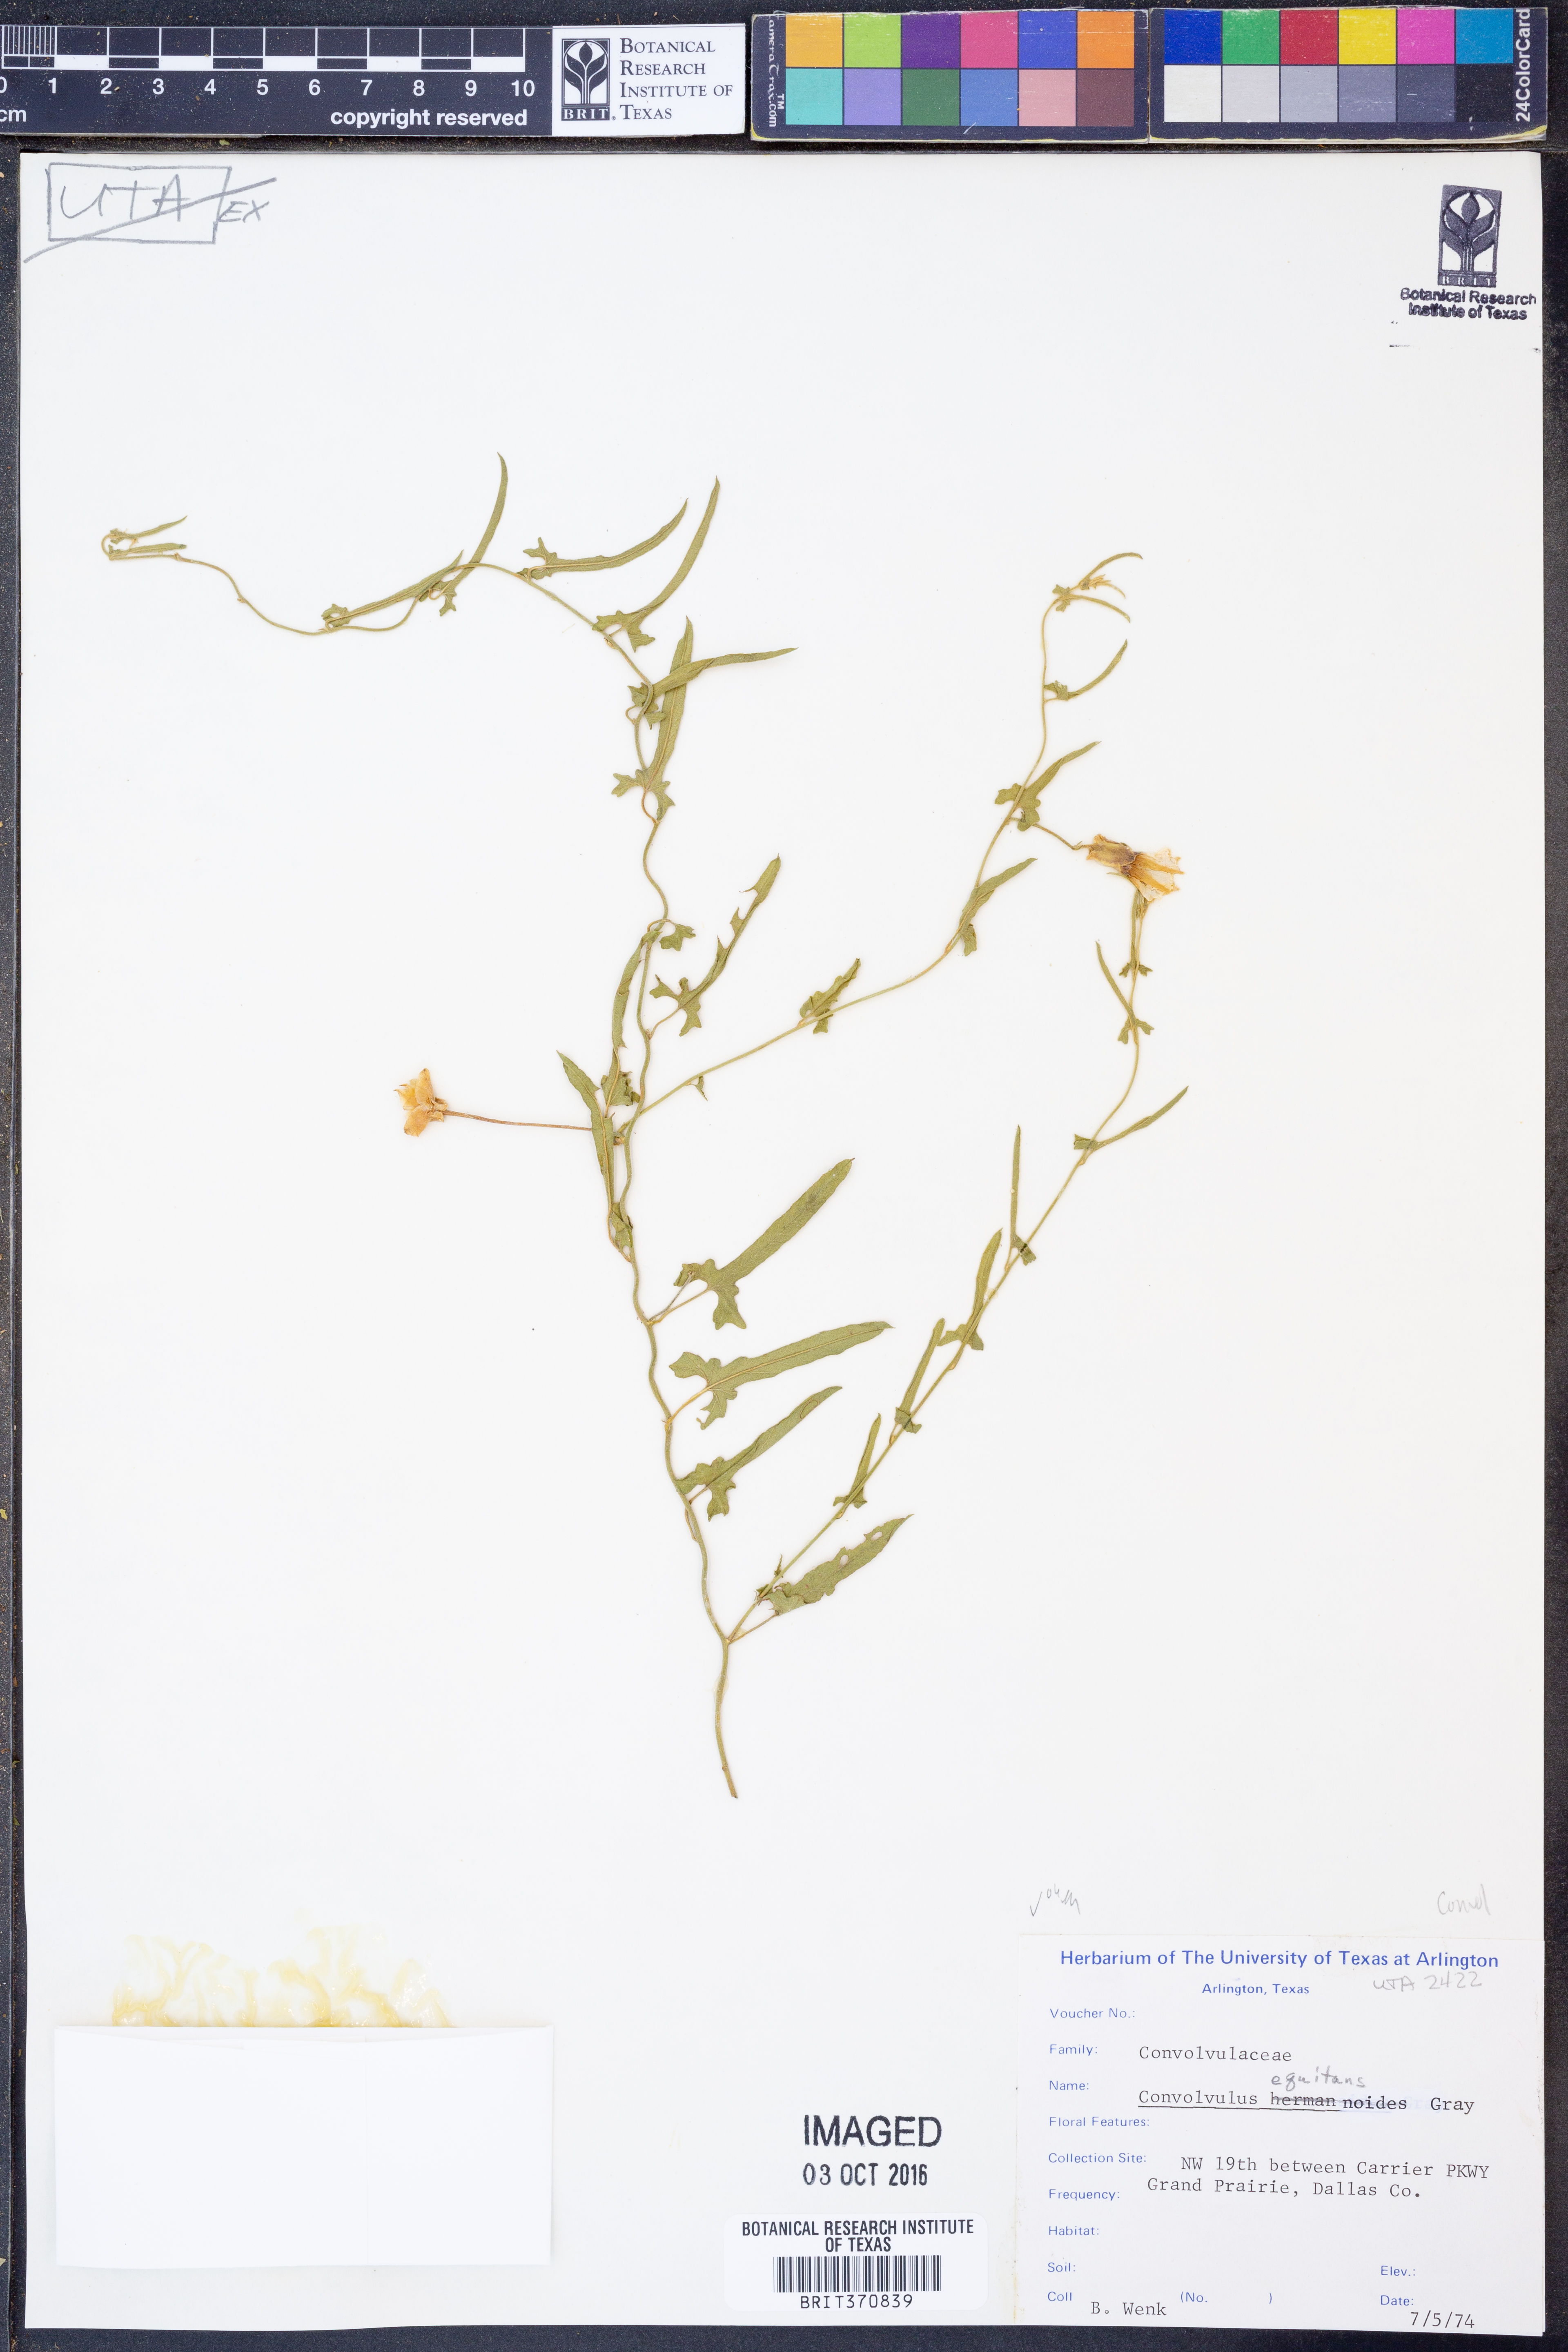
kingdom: Plantae
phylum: Tracheophyta
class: Magnoliopsida
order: Solanales
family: Convolvulaceae
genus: Convolvulus
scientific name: Convolvulus equitans
